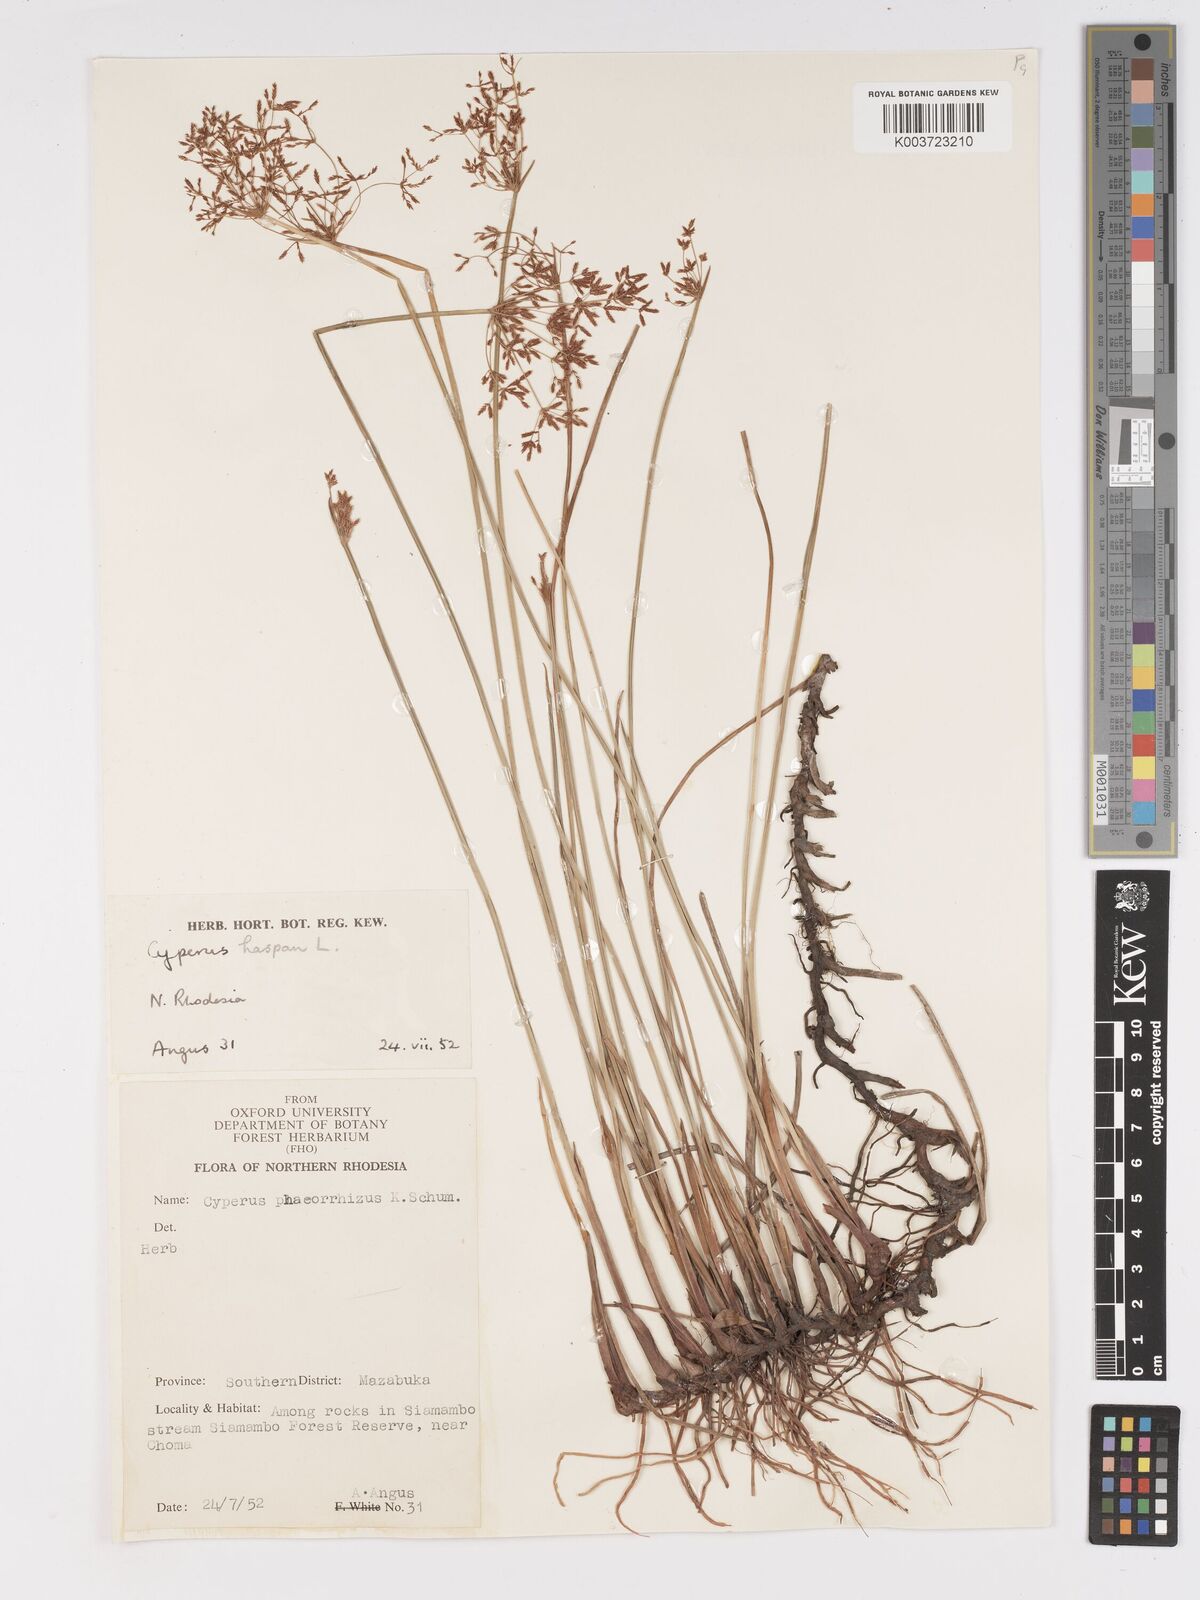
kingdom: Plantae
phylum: Tracheophyta
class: Liliopsida
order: Poales
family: Cyperaceae
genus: Cyperus
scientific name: Cyperus haspan
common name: Haspan flatsedge
